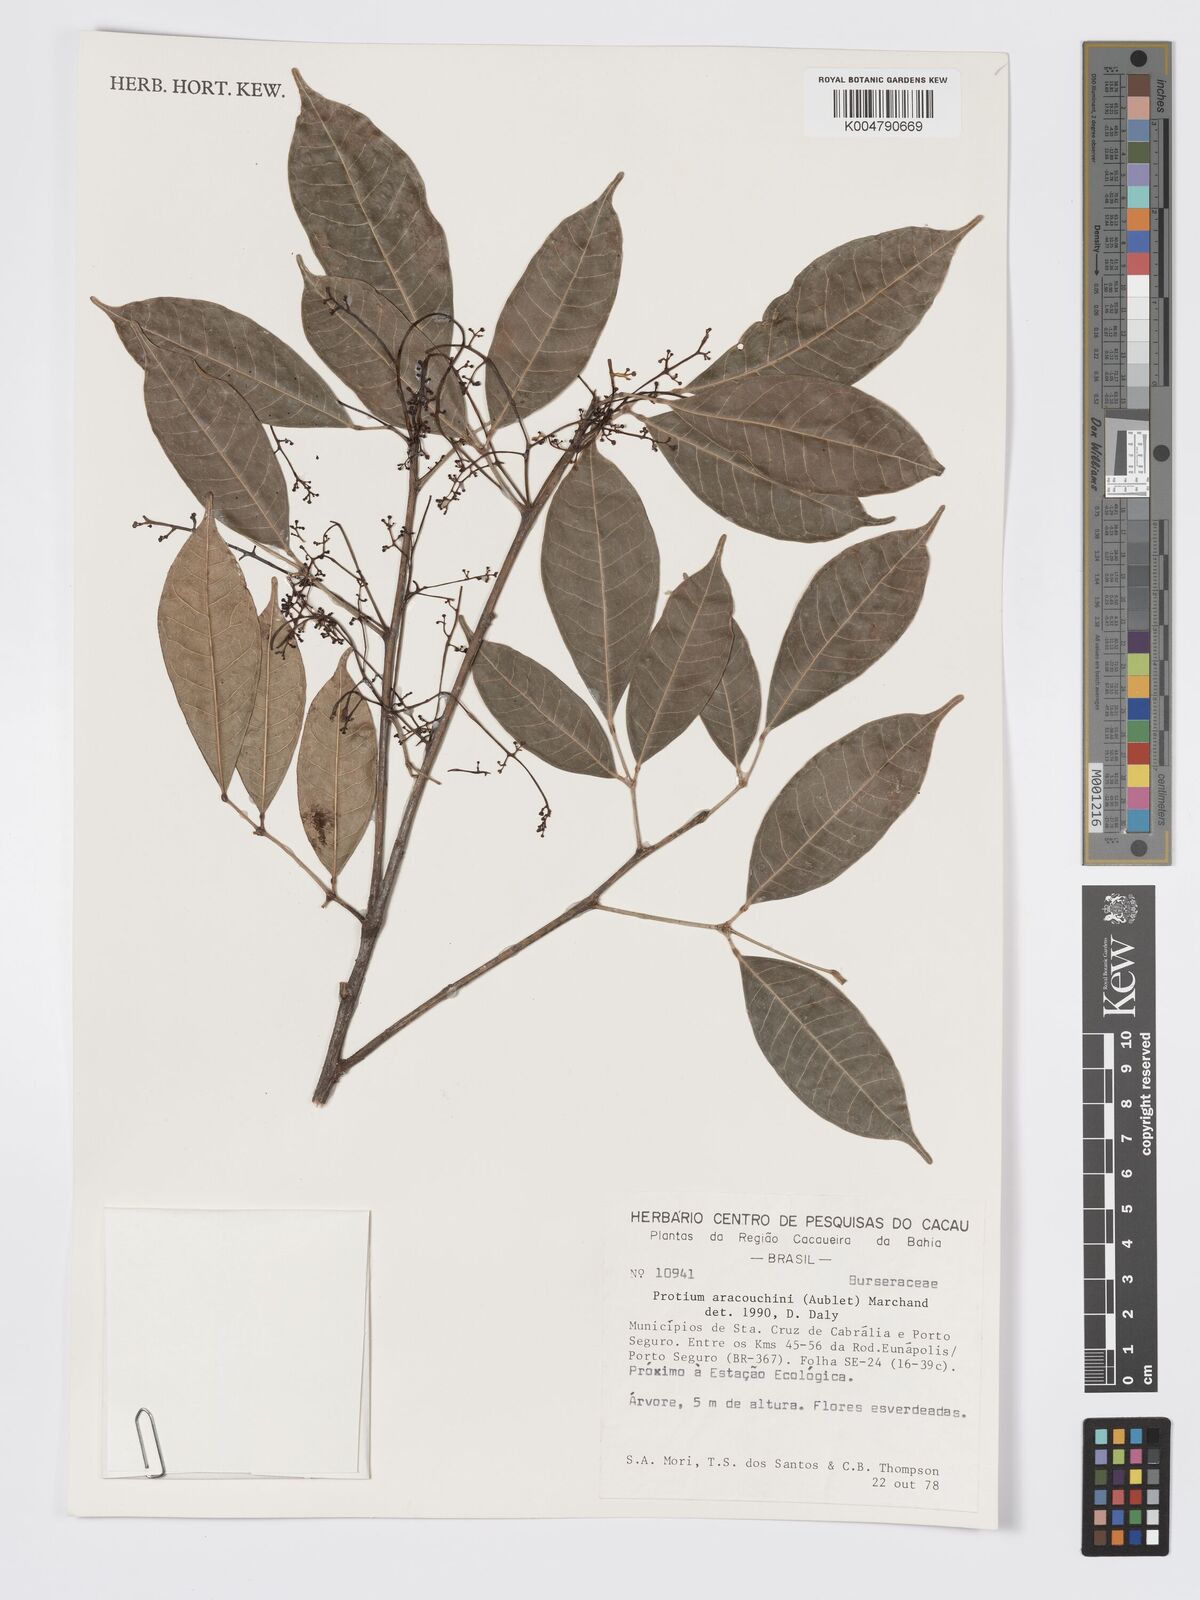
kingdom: Plantae
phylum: Tracheophyta
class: Magnoliopsida
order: Sapindales
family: Burseraceae
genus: Protium
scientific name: Protium aracouchini
